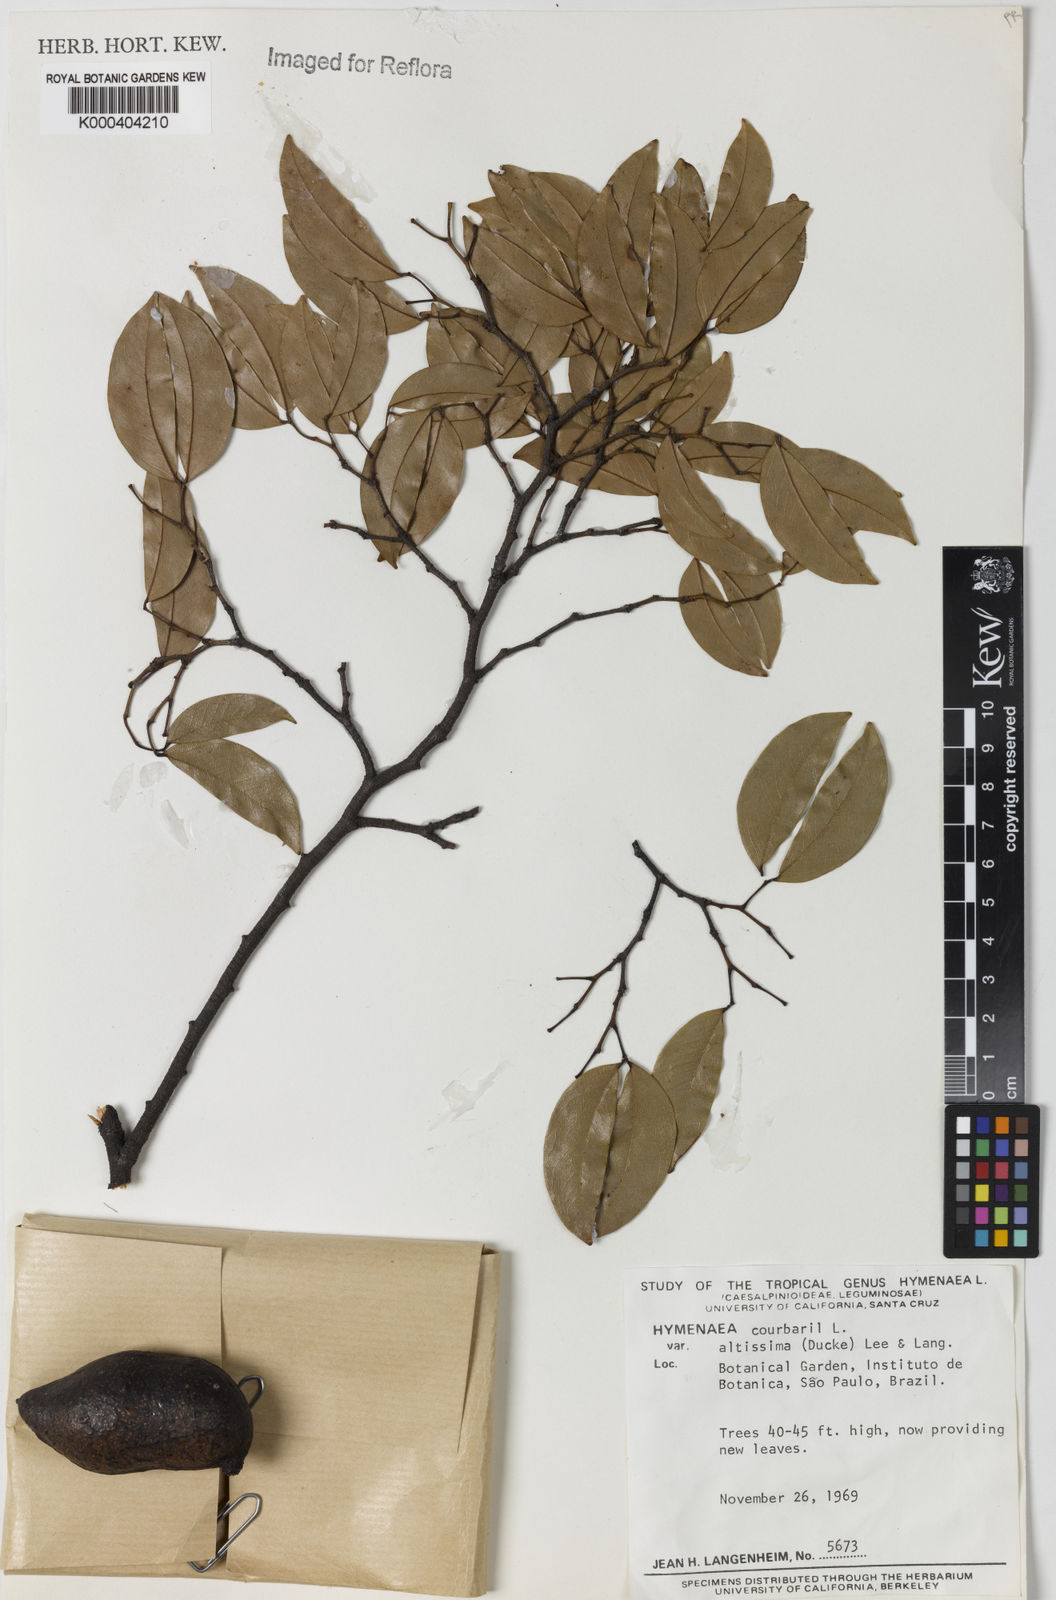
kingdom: Plantae
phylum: Tracheophyta
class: Magnoliopsida
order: Fabales
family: Fabaceae
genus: Hymenaea
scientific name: Hymenaea altissima
